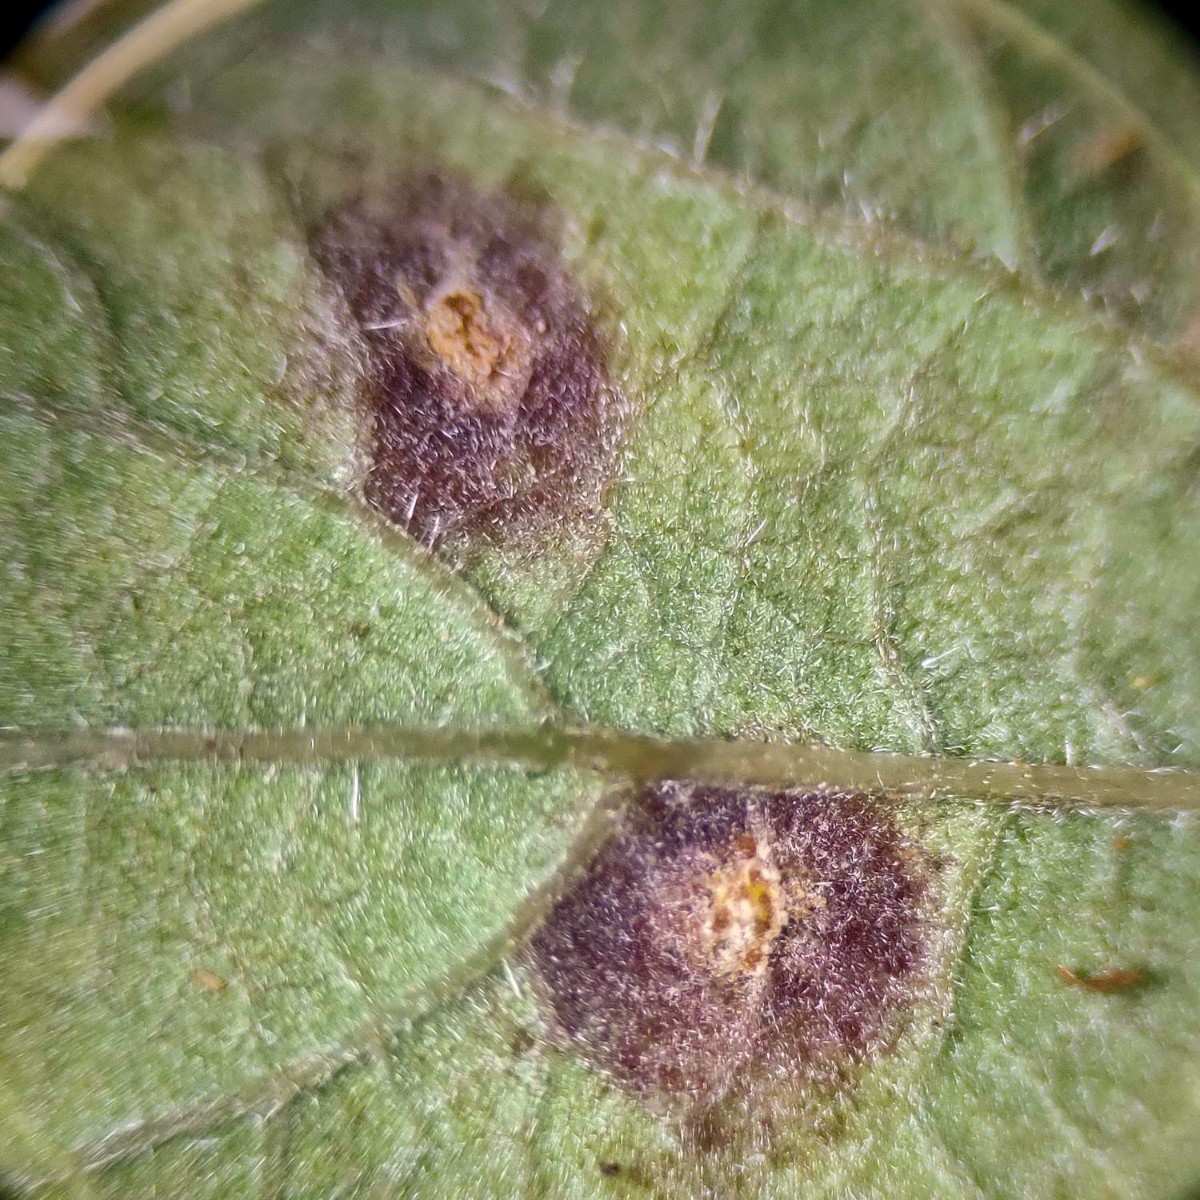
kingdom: Fungi
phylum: Basidiomycota
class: Pucciniomycetes
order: Pucciniales
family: Phragmidiaceae
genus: Phragmidium
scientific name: Phragmidium violaceum
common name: violet flercellerust
